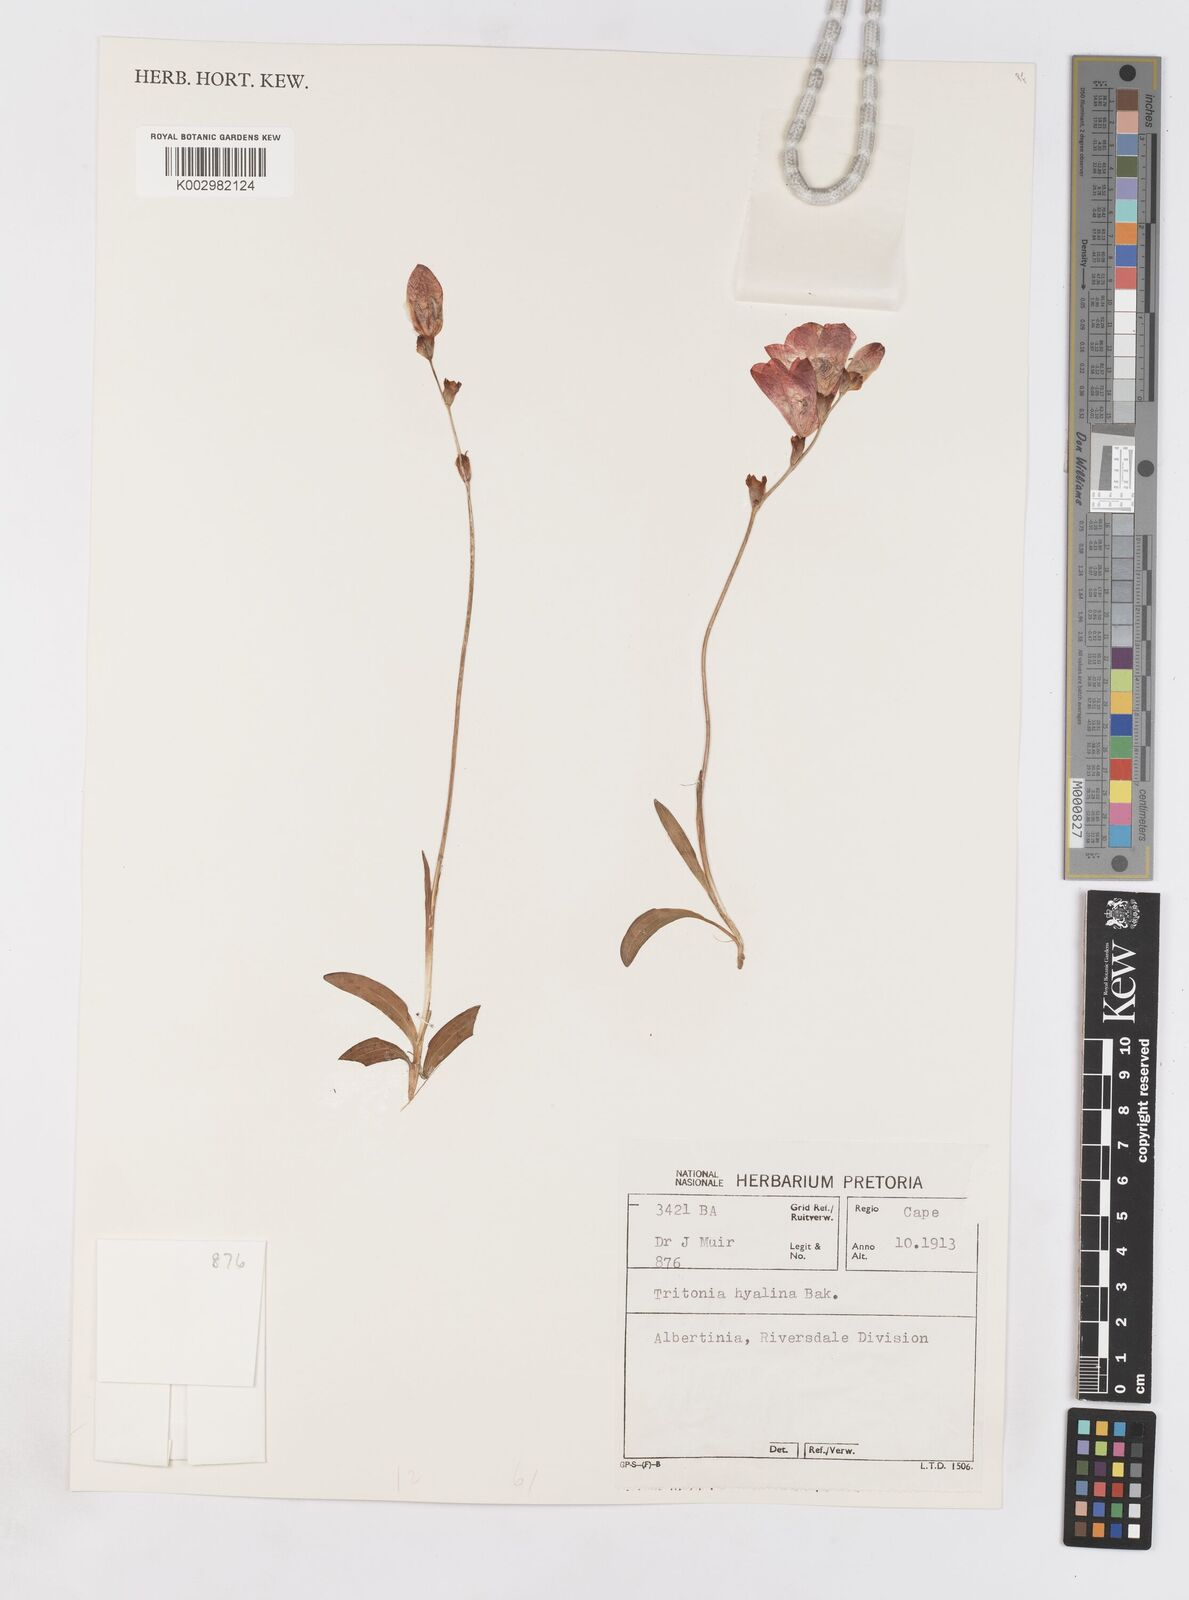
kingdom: Plantae
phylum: Tracheophyta
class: Liliopsida
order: Asparagales
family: Iridaceae
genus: Tritonia
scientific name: Tritonia crocata
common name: Flame-freesia
